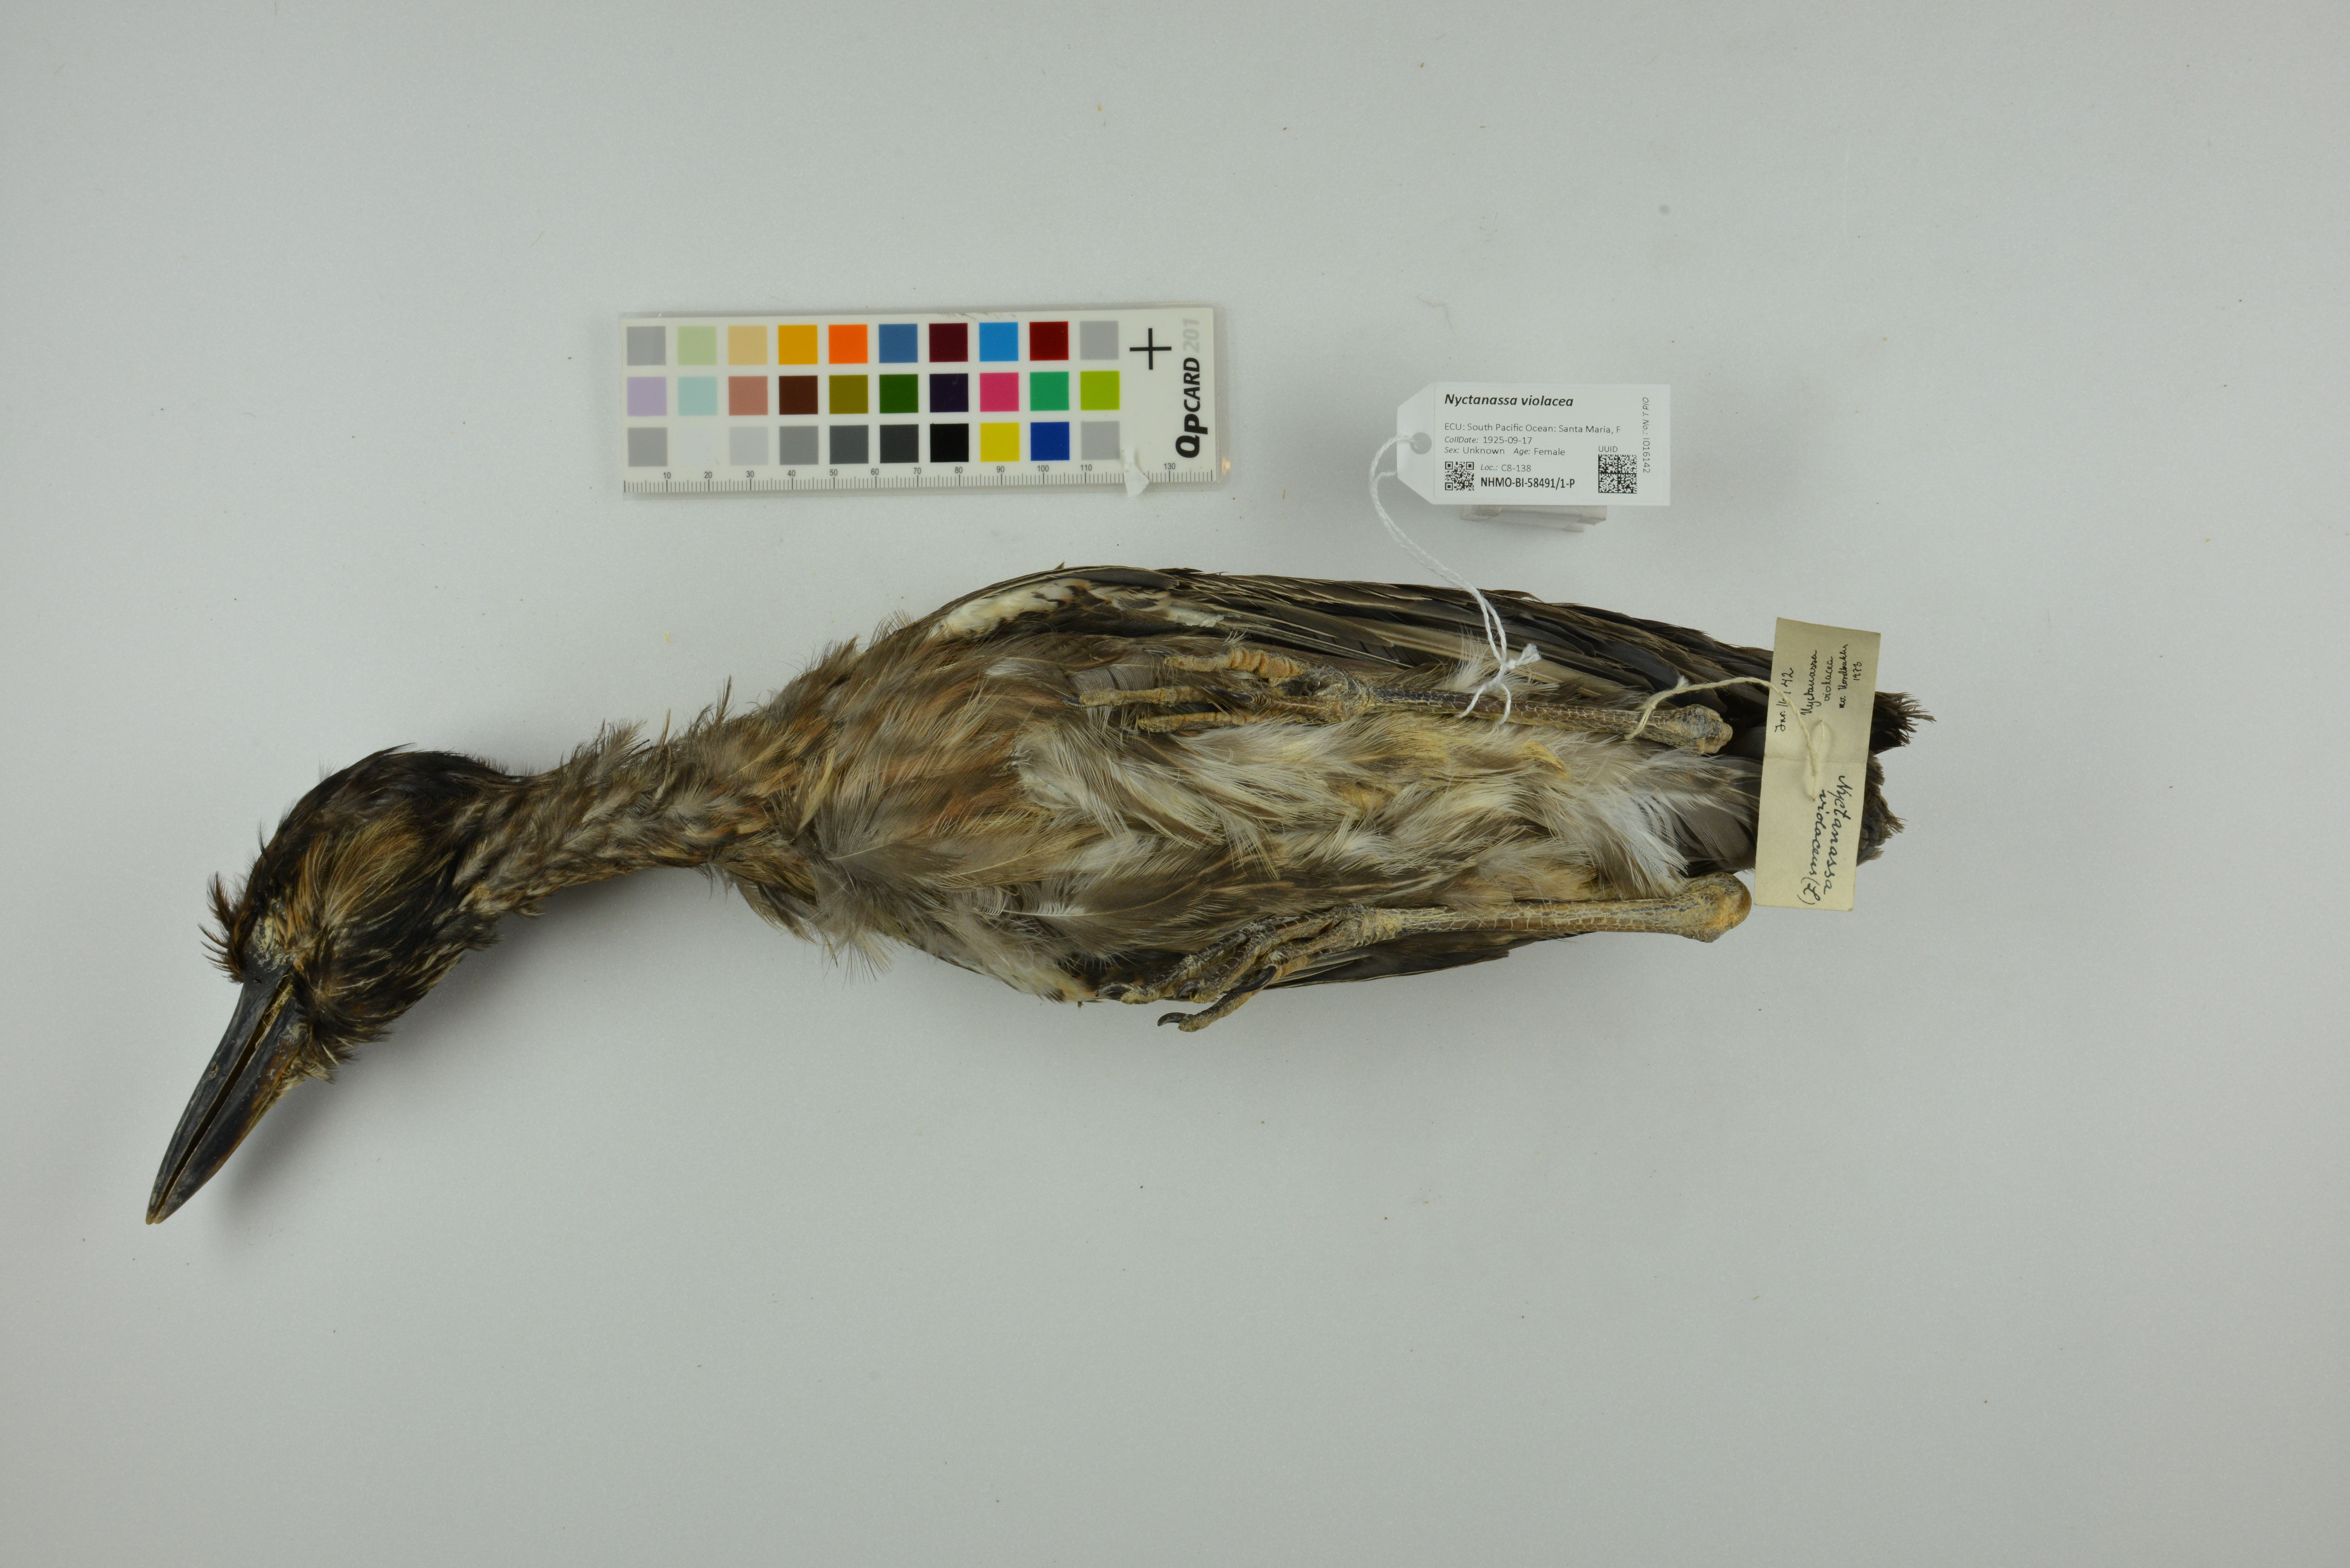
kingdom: Animalia
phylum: Chordata
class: Aves
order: Pelecaniformes
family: Ardeidae
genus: Nyctanassa
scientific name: Nyctanassa violacea
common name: Yellow-crowned night heron
